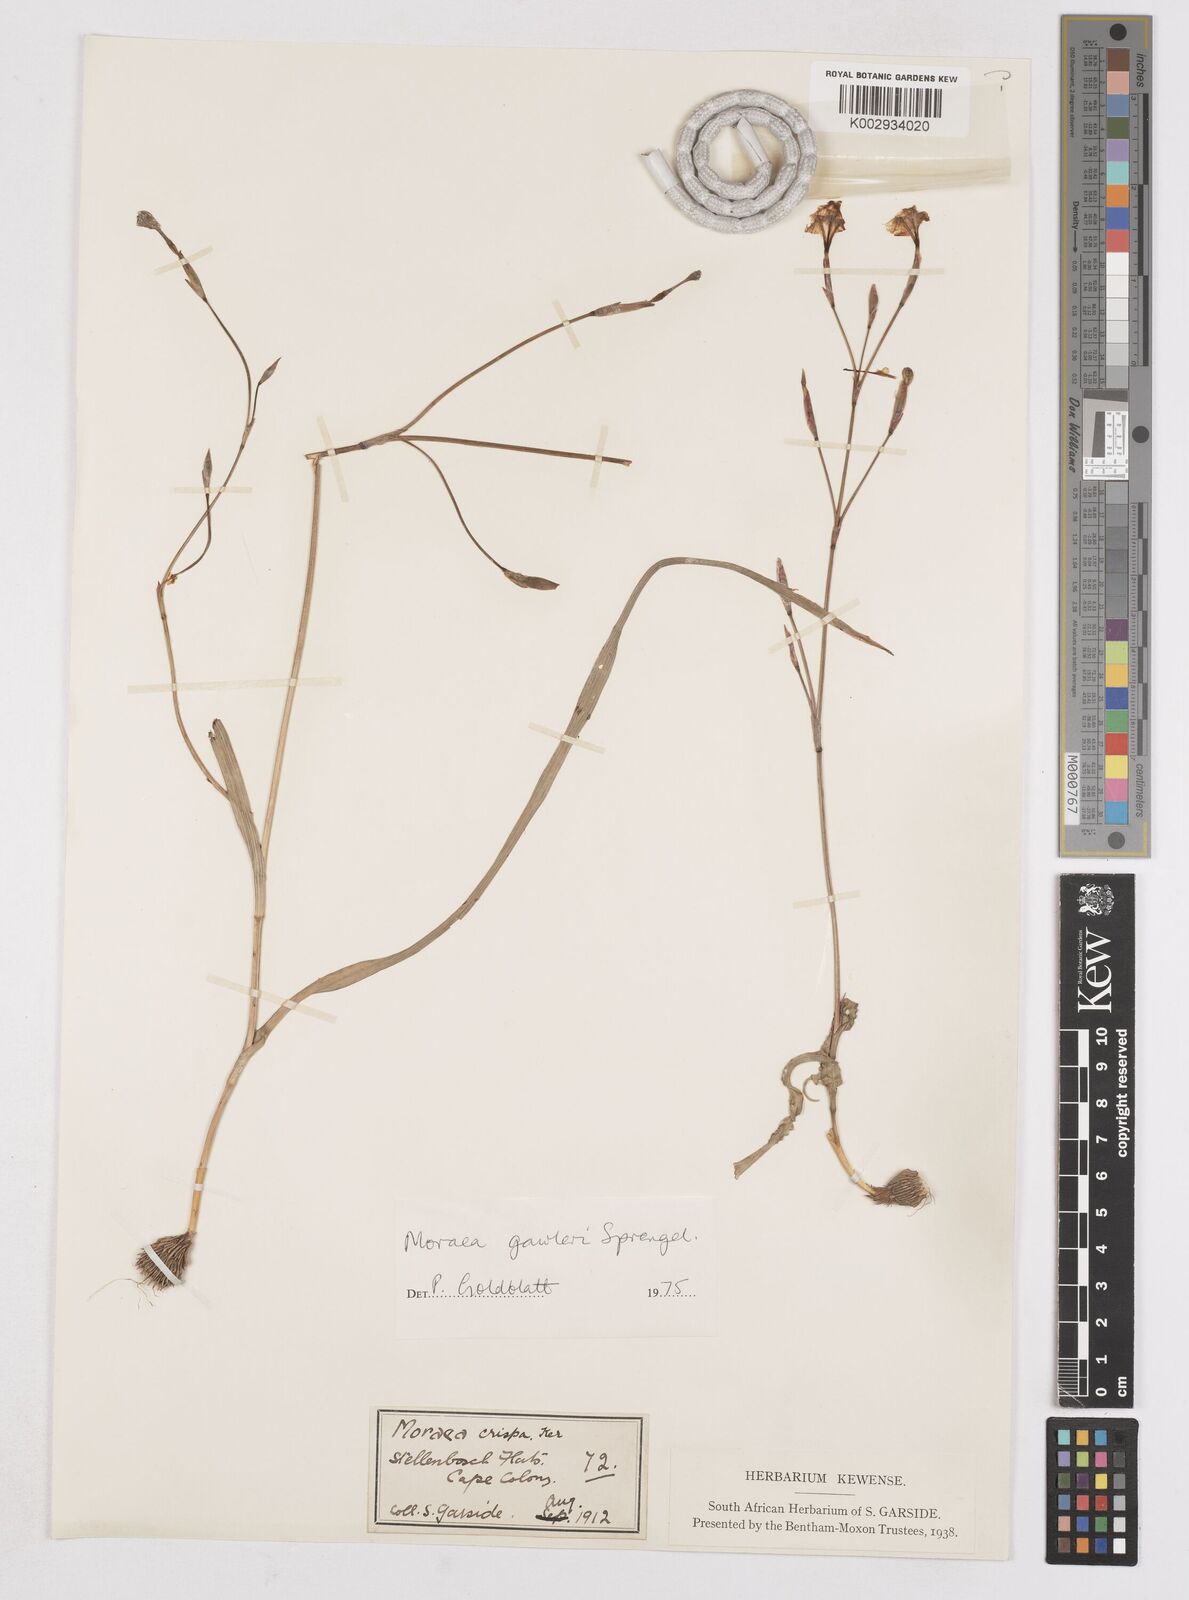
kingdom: Plantae
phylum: Tracheophyta
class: Liliopsida
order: Asparagales
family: Iridaceae
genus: Moraea
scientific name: Moraea gawleri
